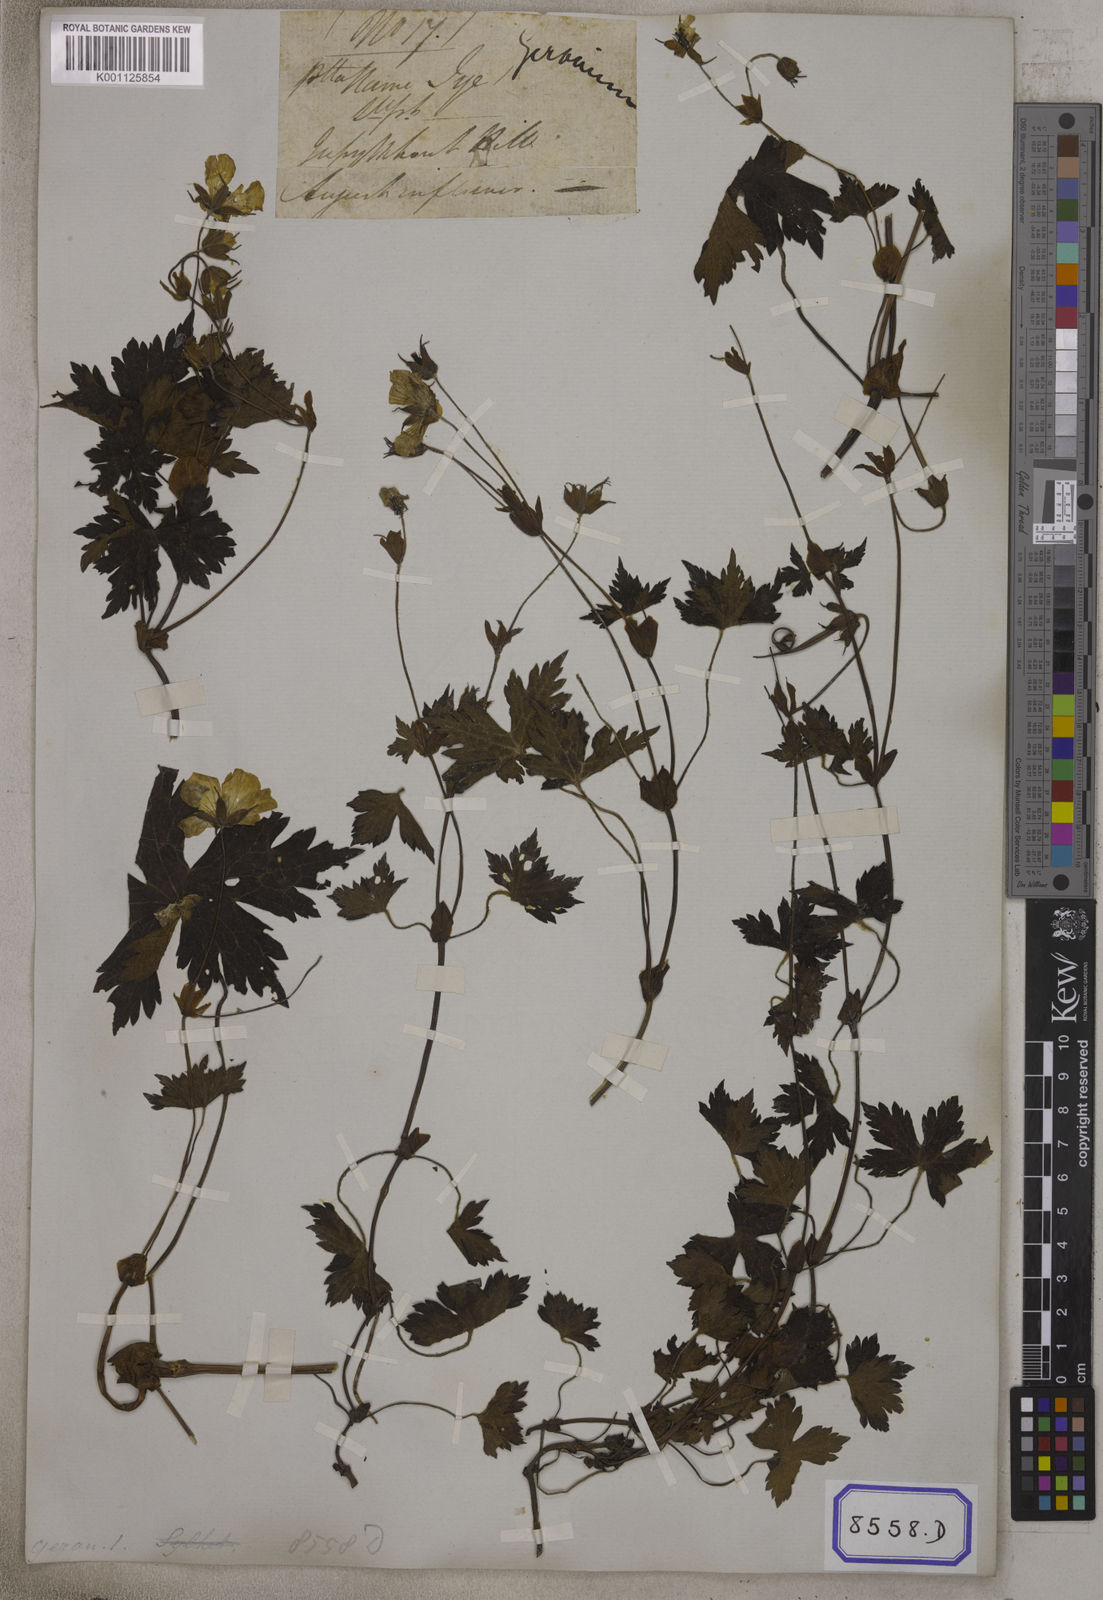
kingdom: Plantae
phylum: Tracheophyta
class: Magnoliopsida
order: Geraniales
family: Geraniaceae
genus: Geranium
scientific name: Geranium
